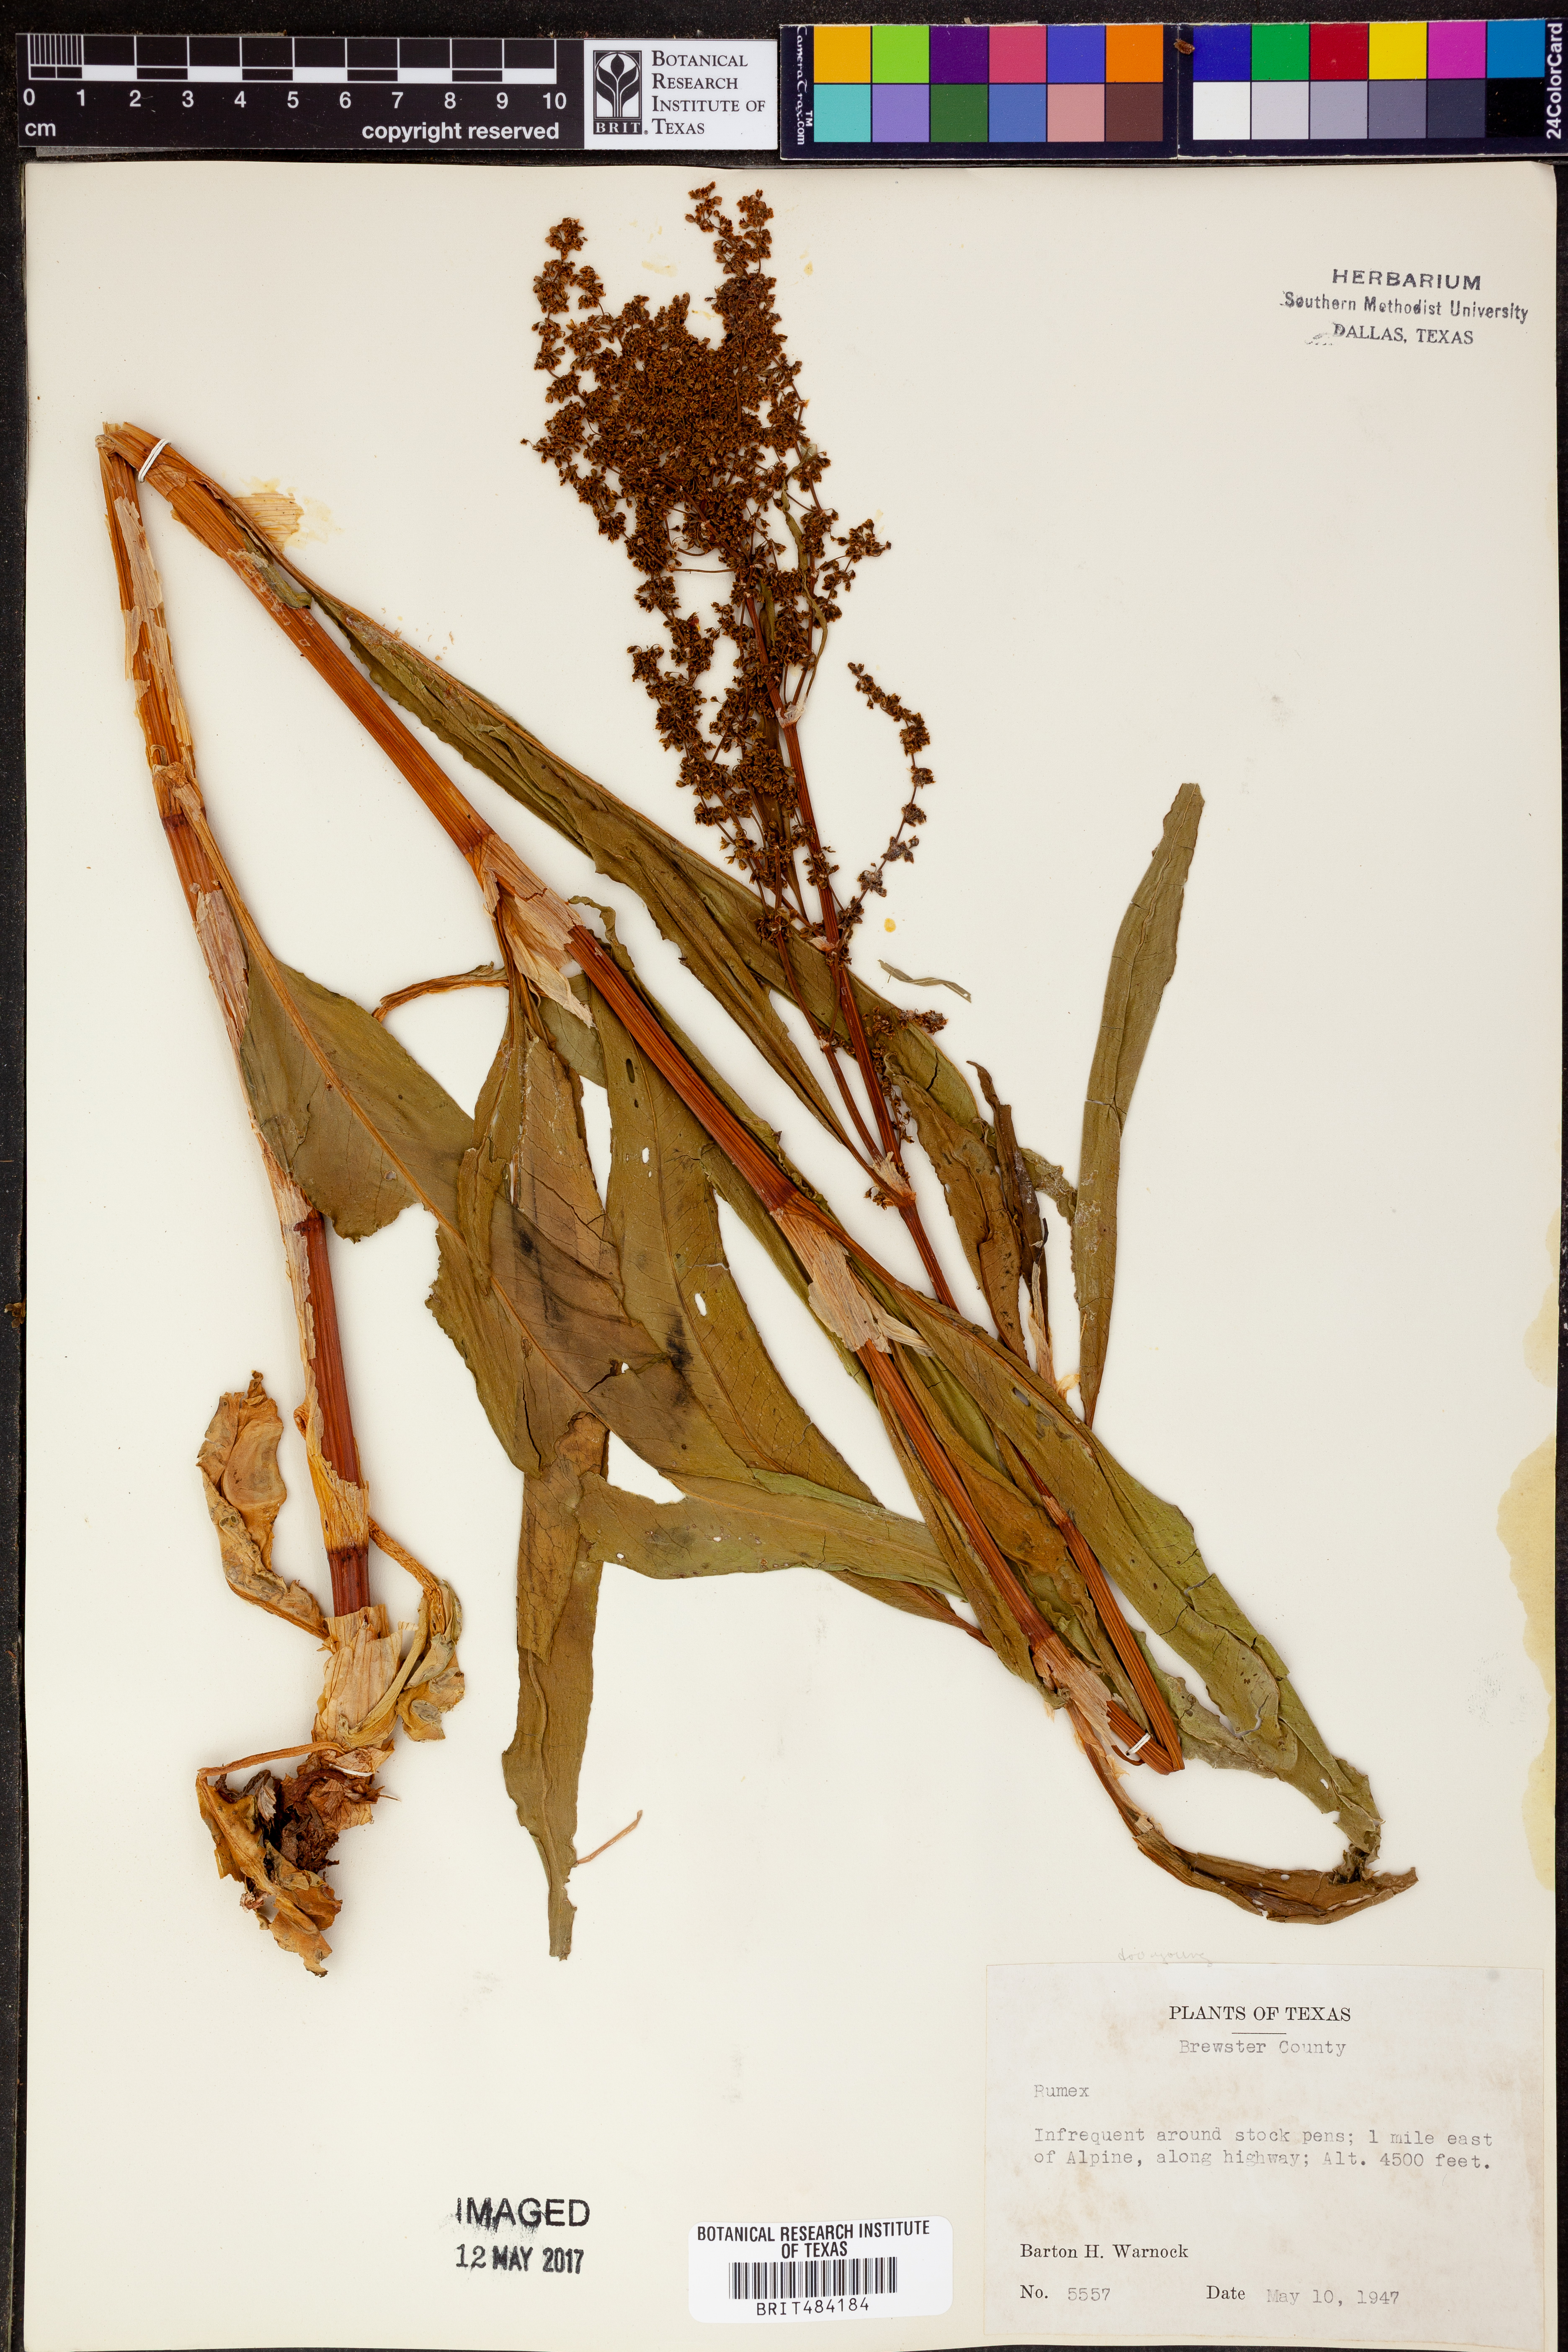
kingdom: Plantae
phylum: Tracheophyta
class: Magnoliopsida
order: Caryophyllales
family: Polygonaceae
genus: Rumex
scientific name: Rumex
